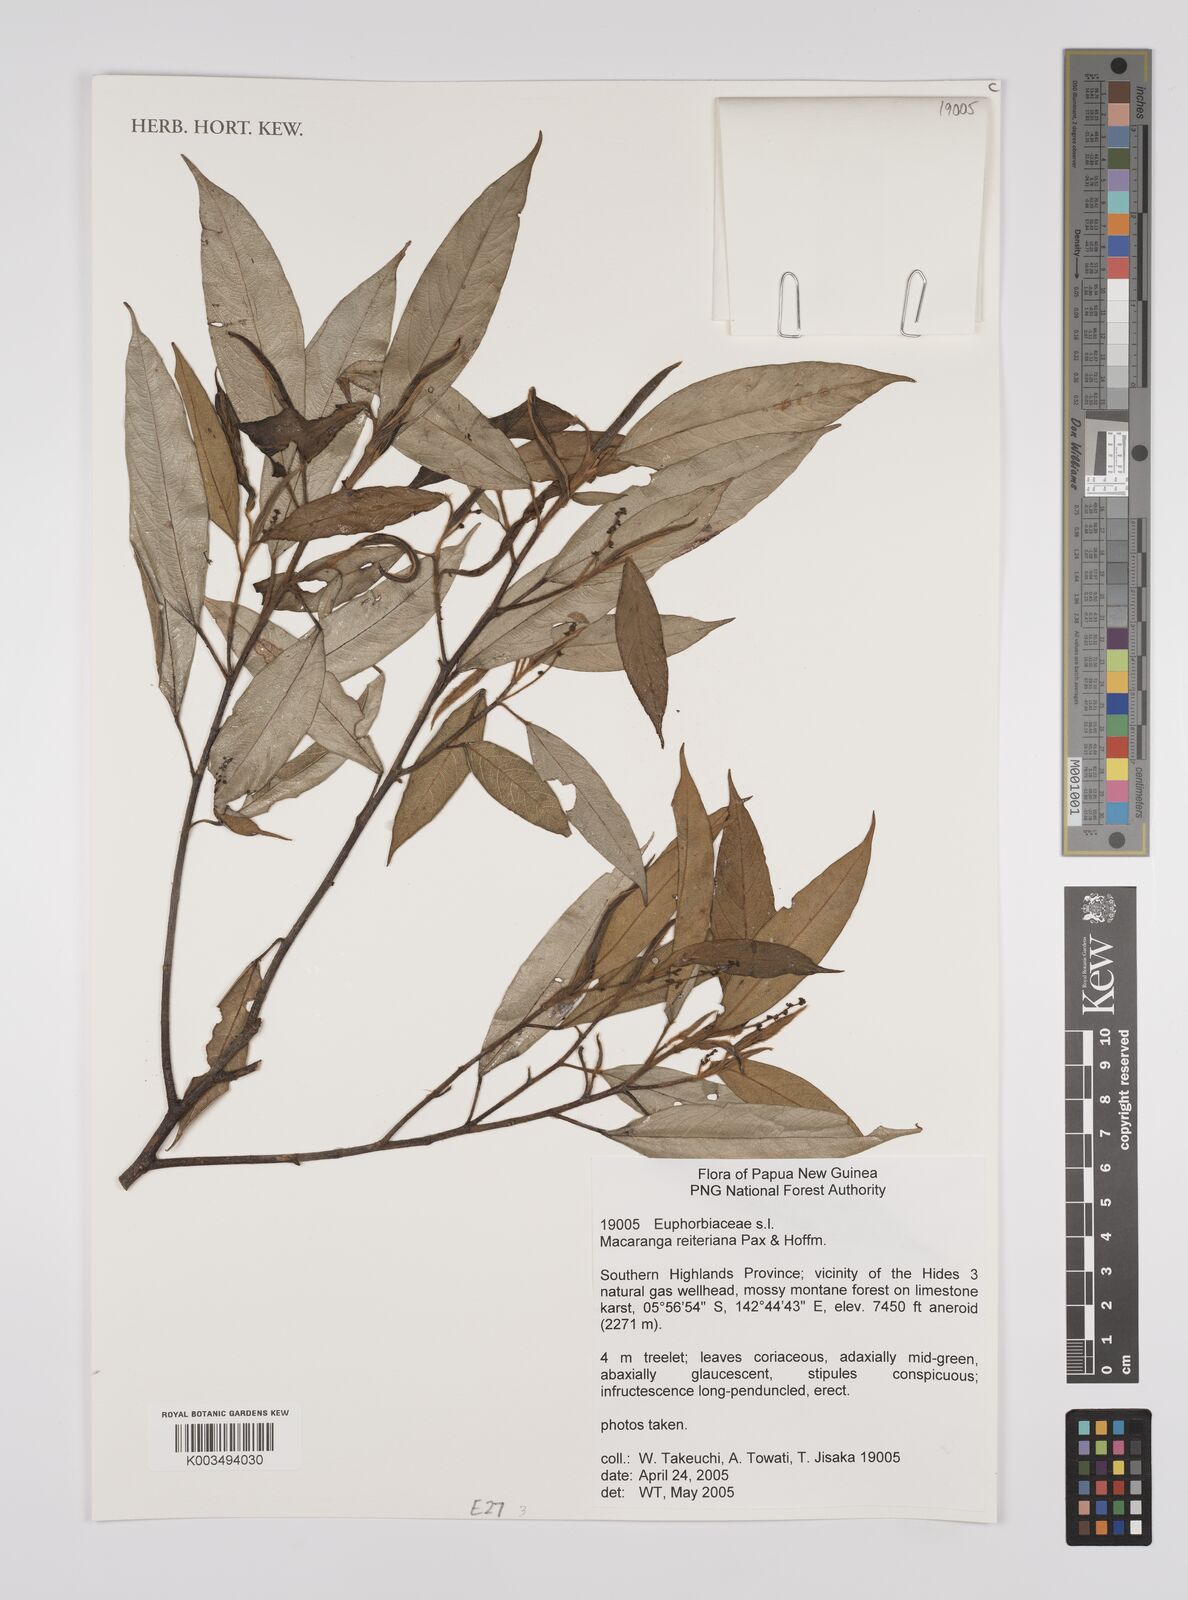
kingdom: Plantae
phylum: Tracheophyta
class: Magnoliopsida
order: Malpighiales
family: Euphorbiaceae
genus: Macaranga
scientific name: Macaranga reiteriana
